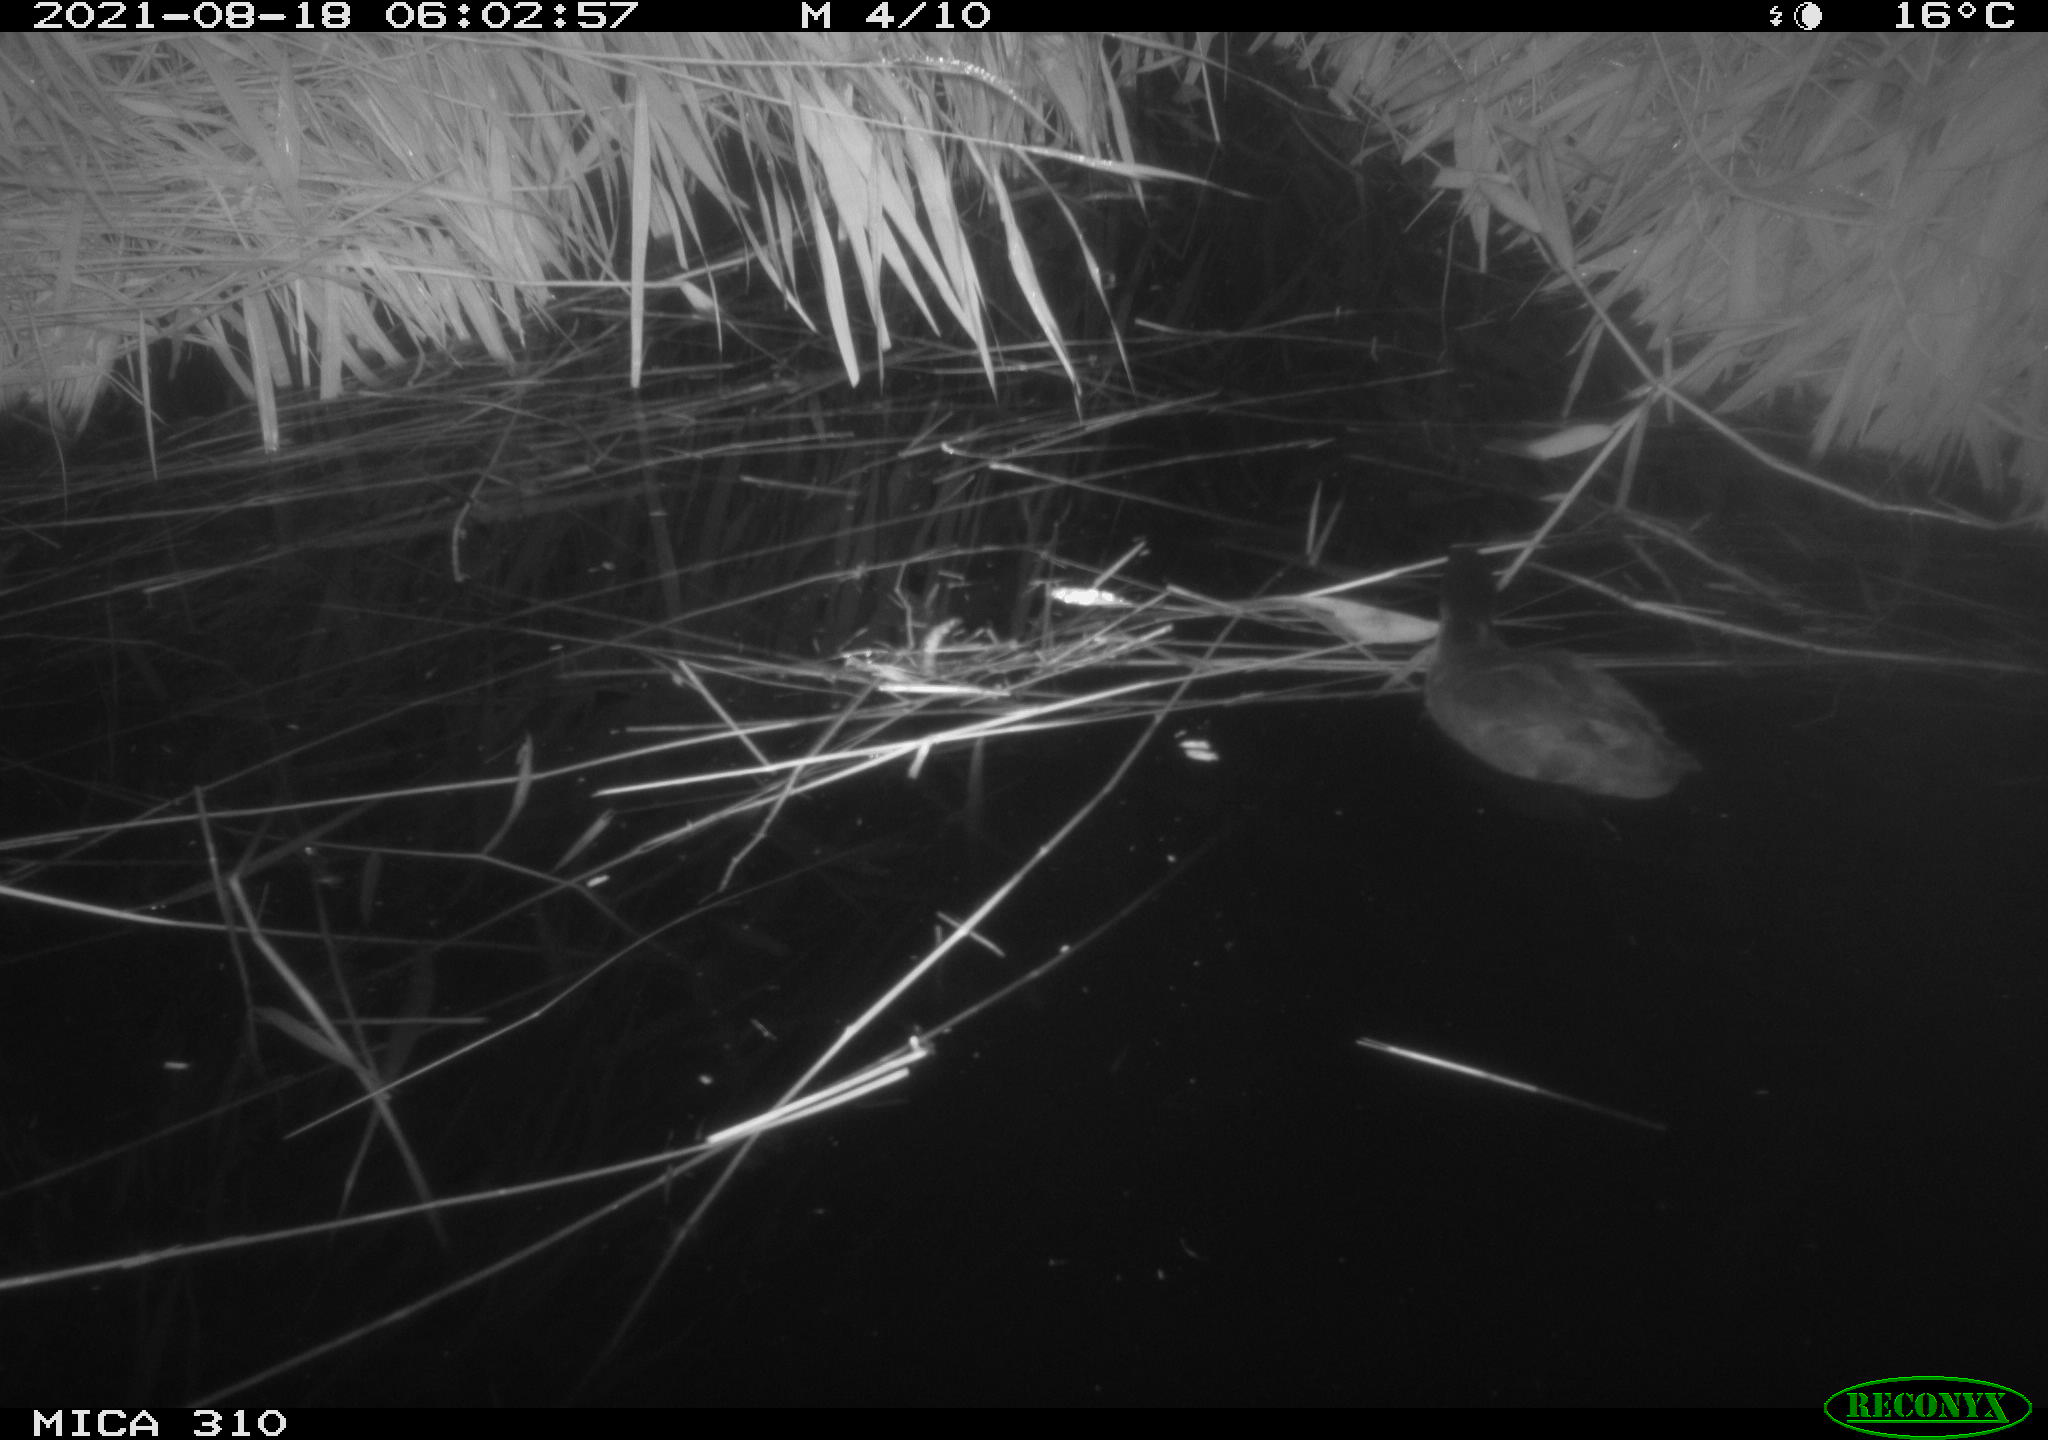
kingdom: Animalia
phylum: Chordata
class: Aves
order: Gruiformes
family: Rallidae
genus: Fulica
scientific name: Fulica atra
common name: Eurasian coot
